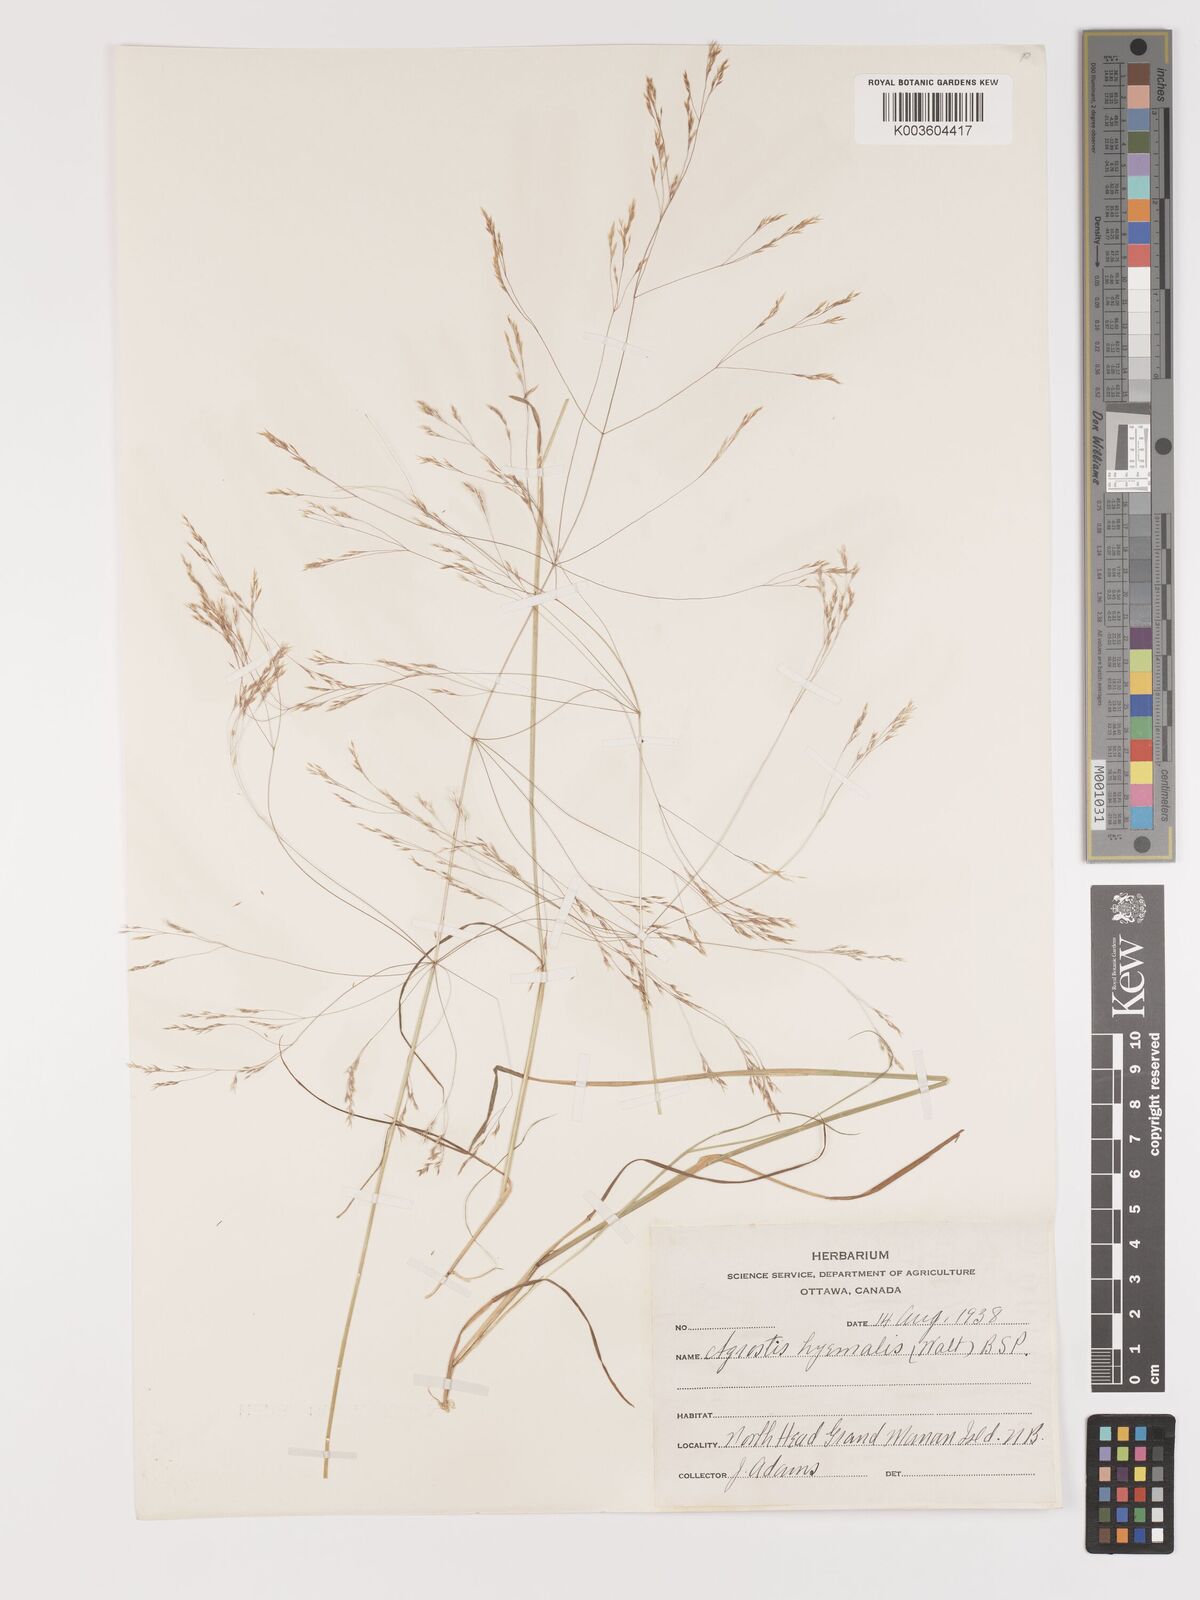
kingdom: Plantae
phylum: Tracheophyta
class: Liliopsida
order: Poales
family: Poaceae
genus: Agrostis
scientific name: Agrostis hyemalis
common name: Small bent
